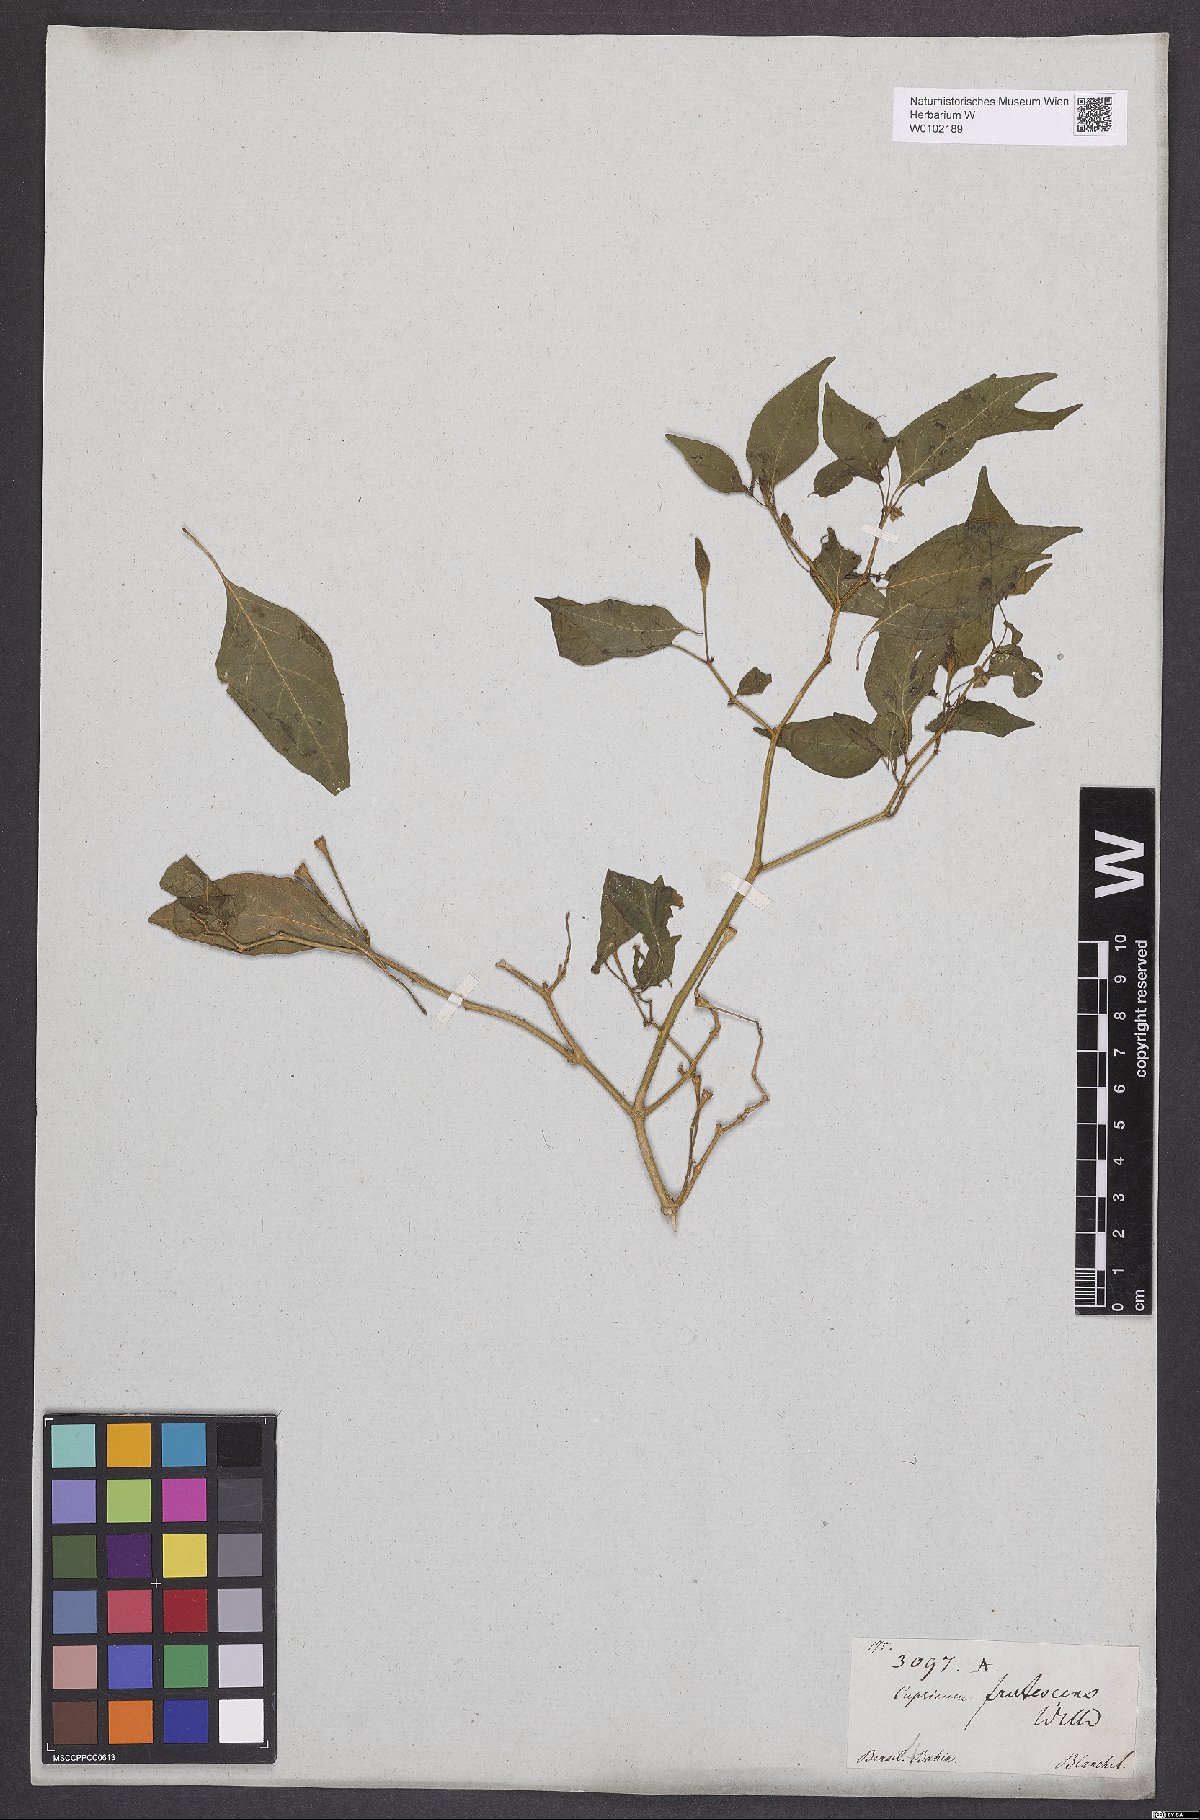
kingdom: Plantae
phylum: Tracheophyta
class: Magnoliopsida
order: Solanales
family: Solanaceae
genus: Capsicum
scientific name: Capsicum frutescens
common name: Bird pepper
